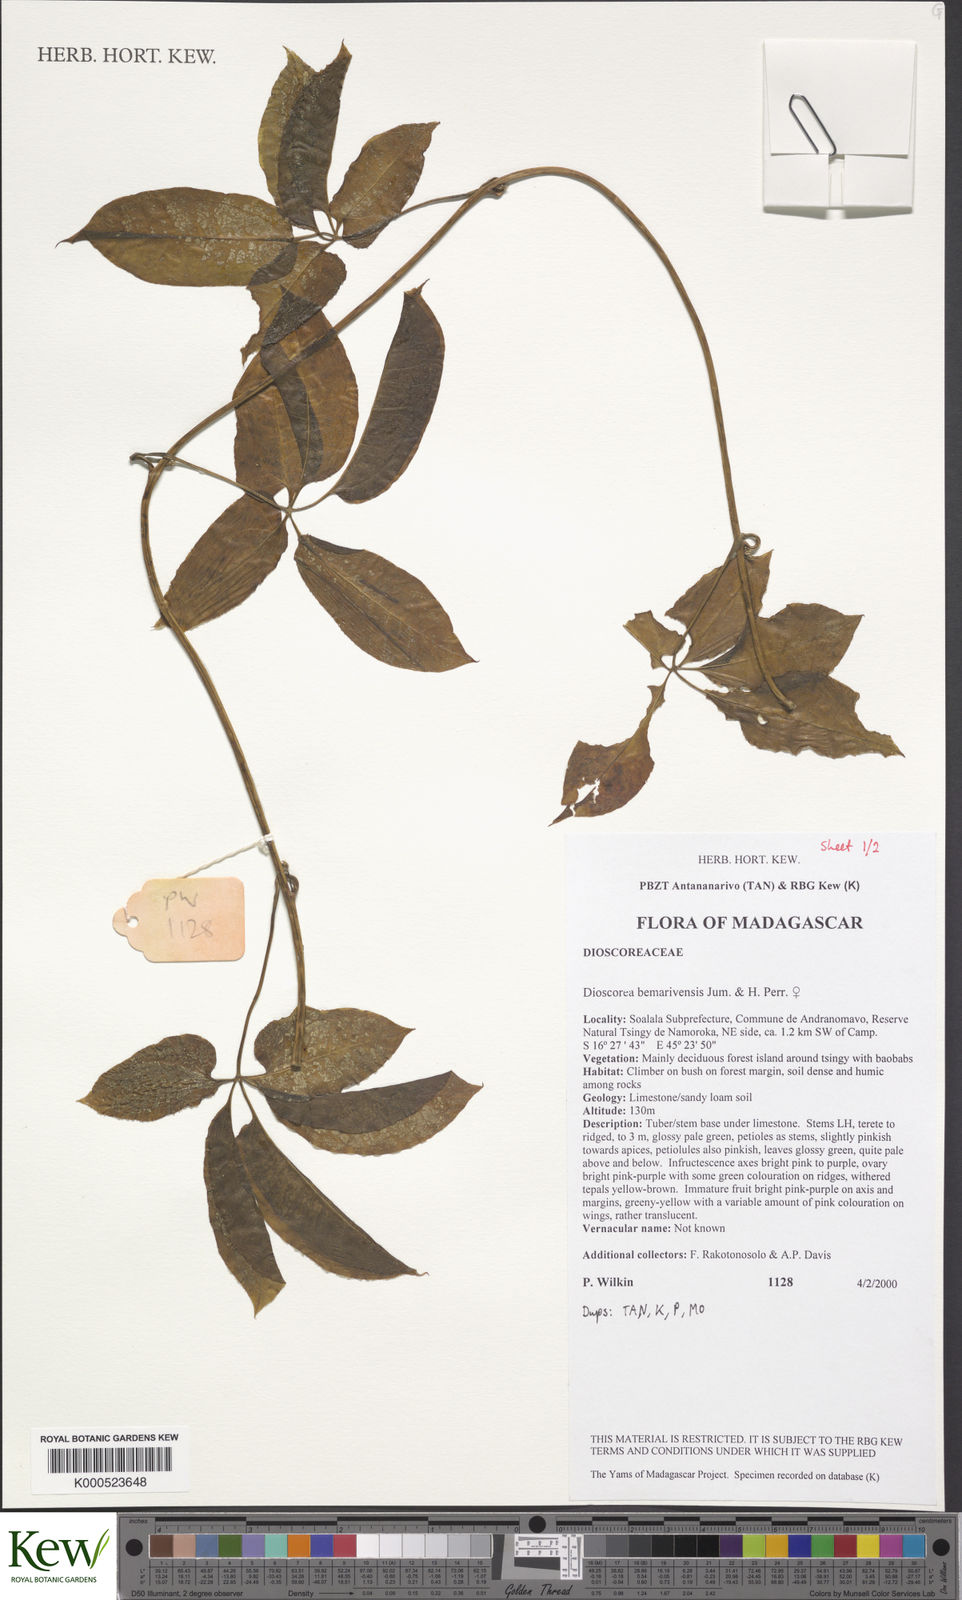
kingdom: Plantae
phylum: Tracheophyta
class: Liliopsida
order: Dioscoreales
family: Dioscoreaceae
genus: Dioscorea
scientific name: Dioscorea bemarivensis
